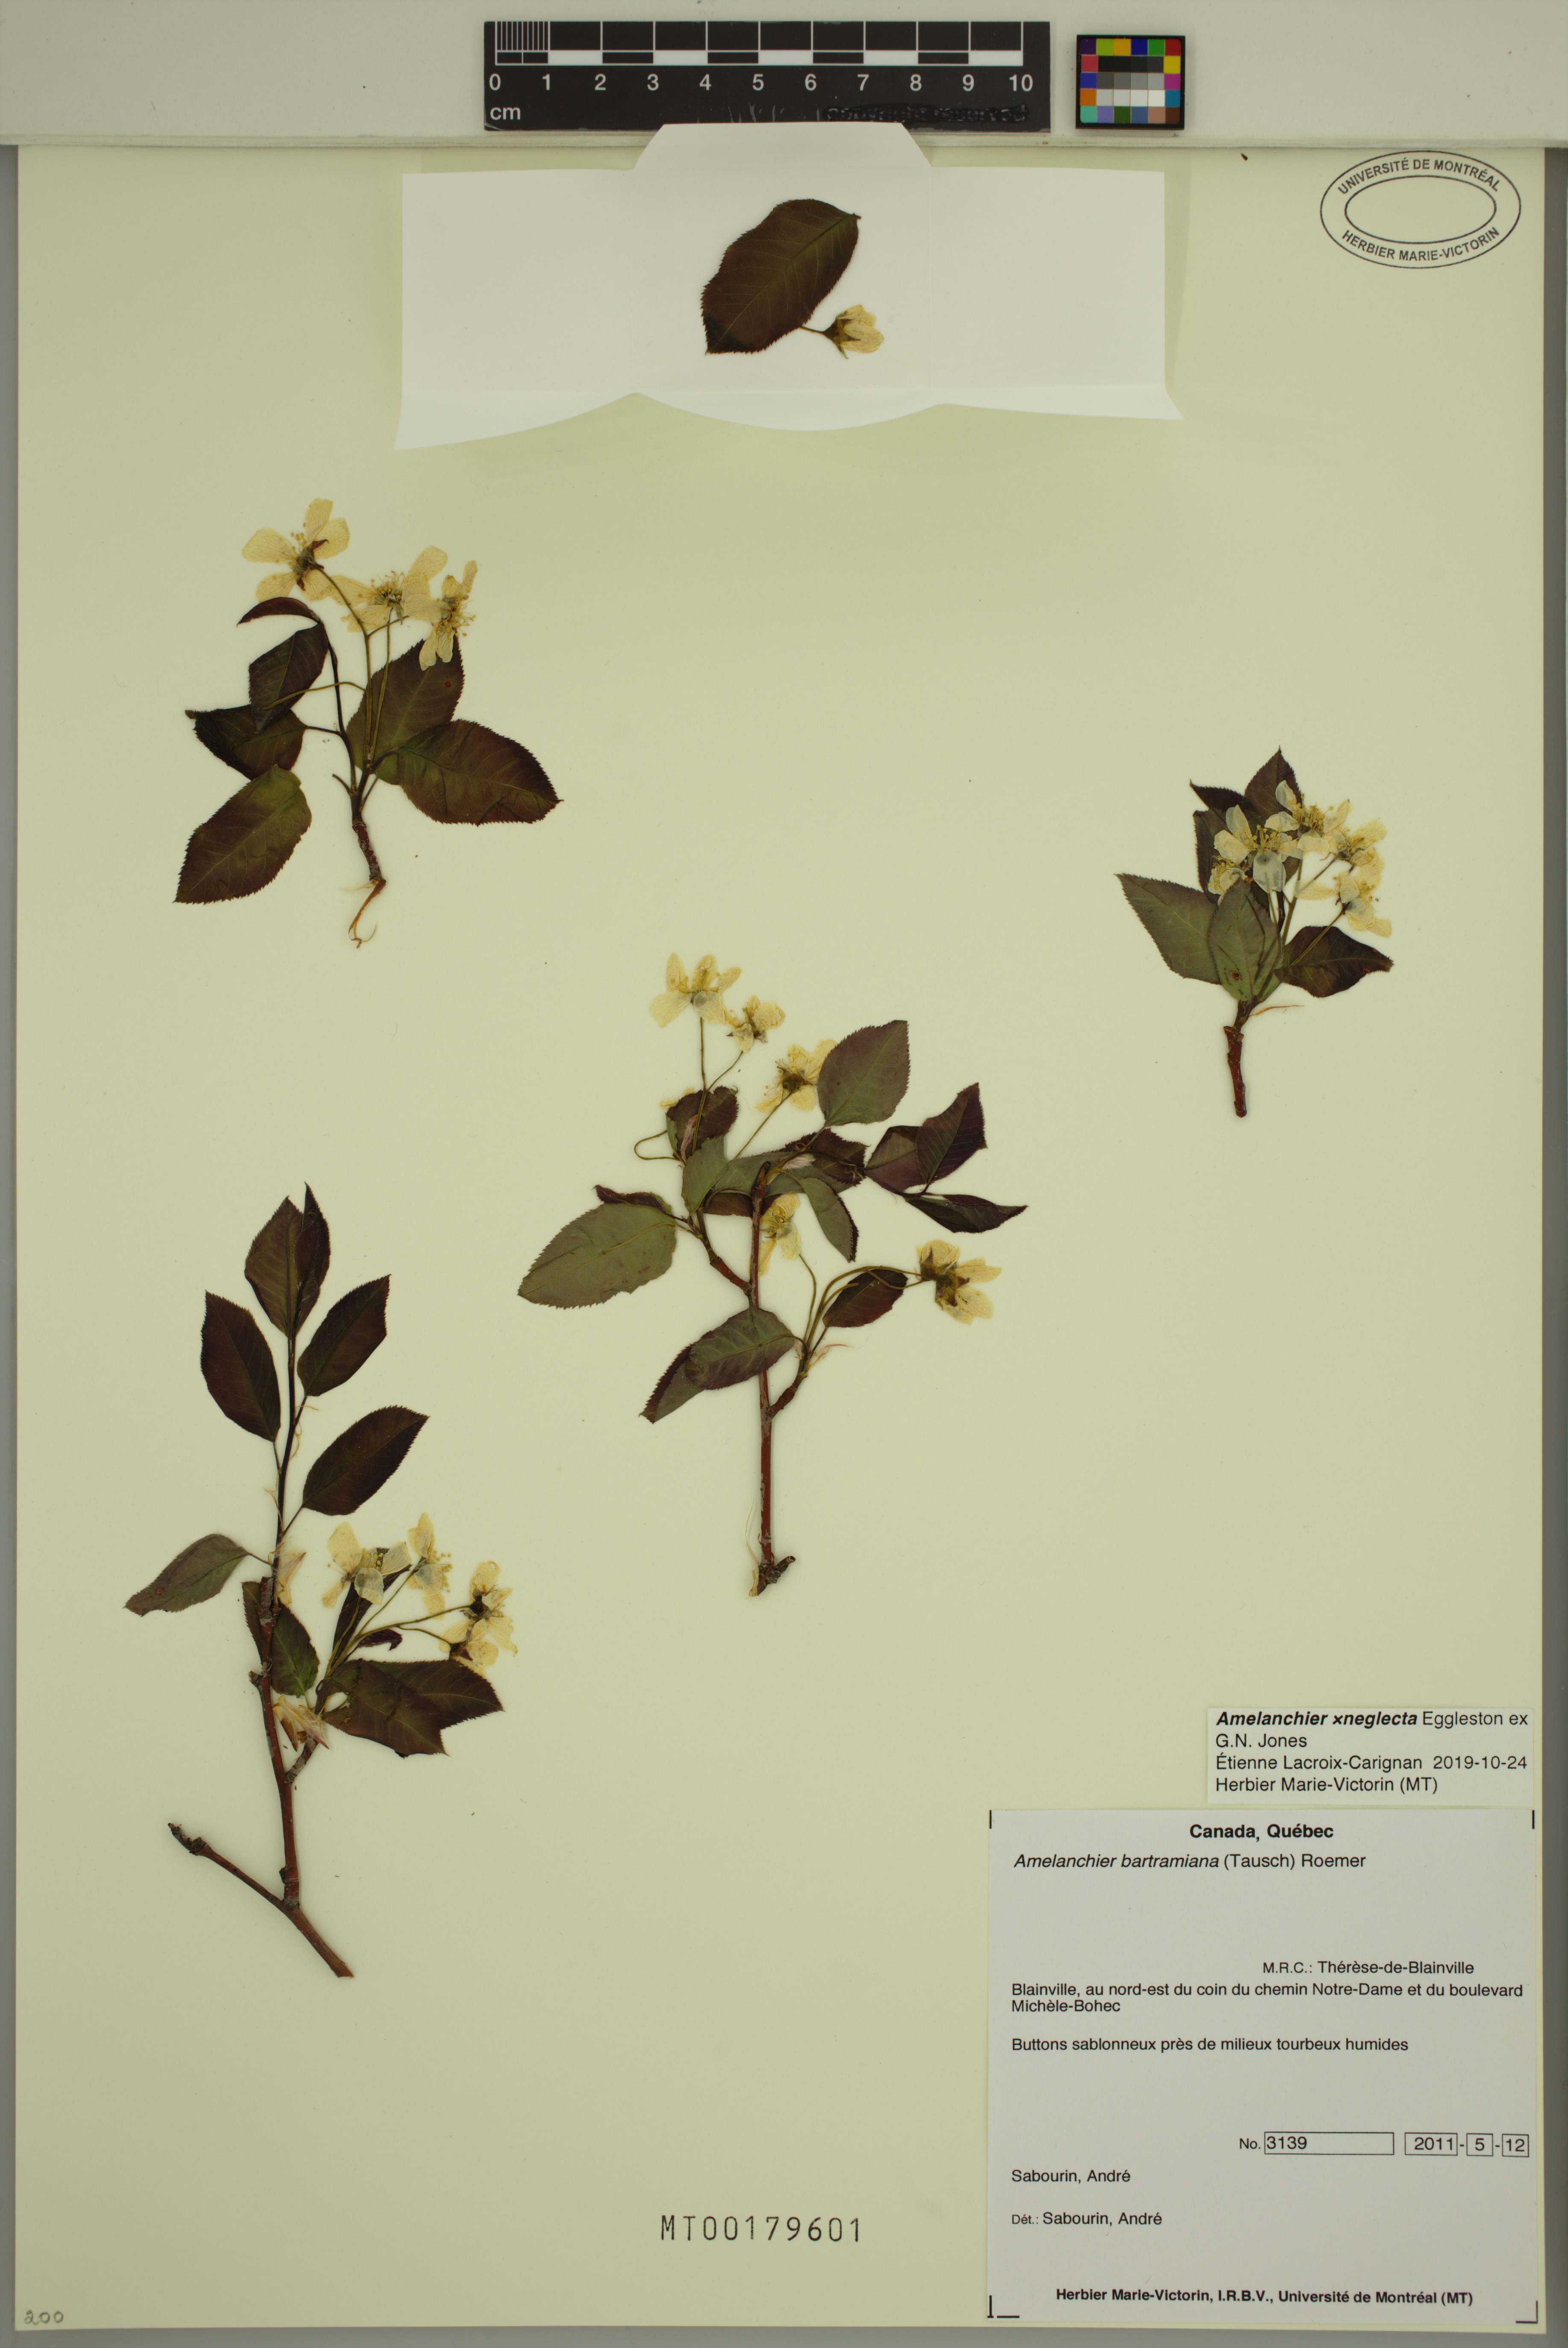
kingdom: Plantae
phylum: Tracheophyta
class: Magnoliopsida
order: Rosales
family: Rosaceae
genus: Amelanchier
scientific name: Amelanchier neglecta
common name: Overlooked serviceberry
